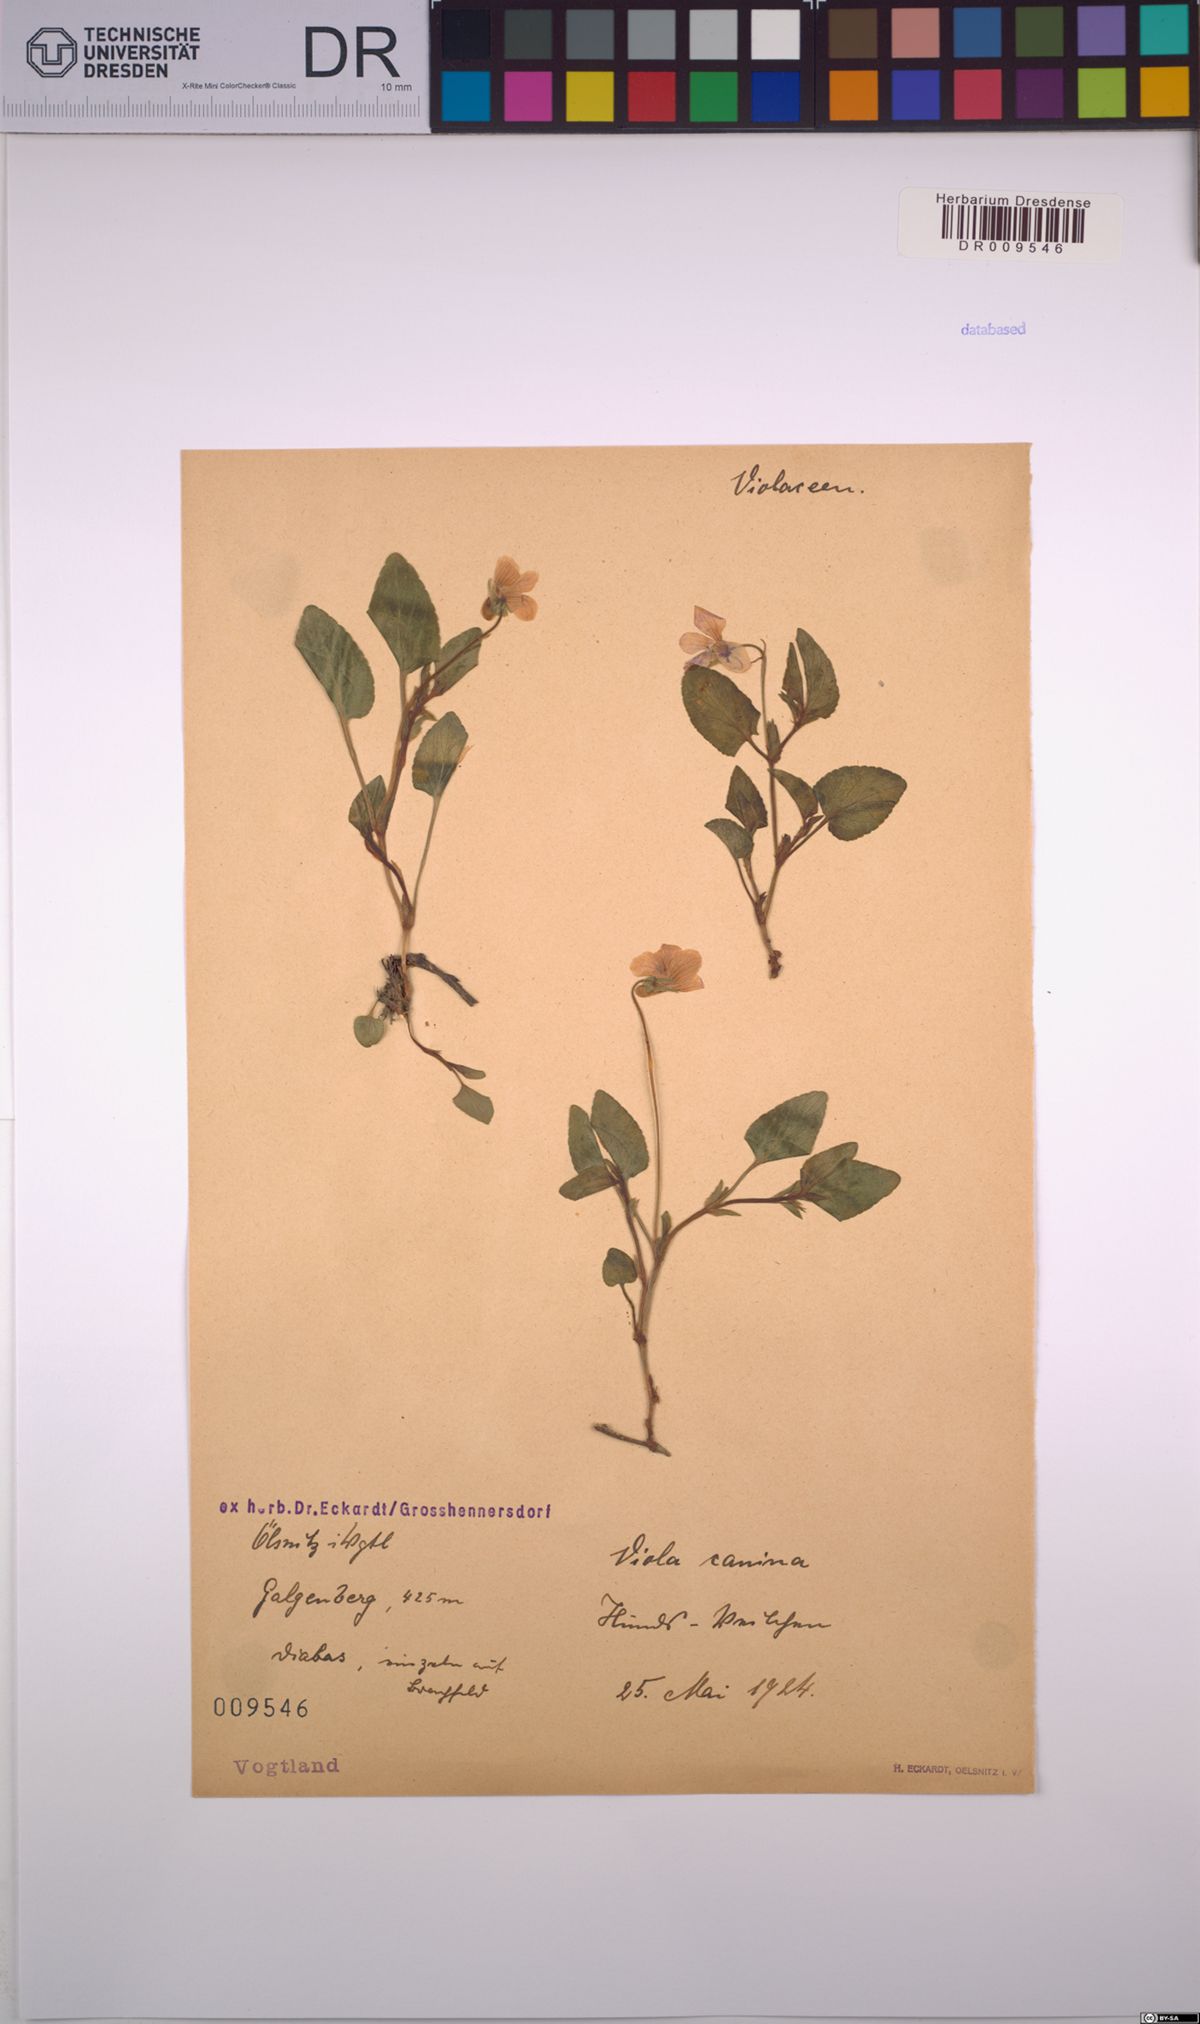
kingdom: Plantae
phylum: Tracheophyta
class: Magnoliopsida
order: Malpighiales
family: Violaceae
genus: Viola
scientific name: Viola canina
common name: Heath dog-violet
